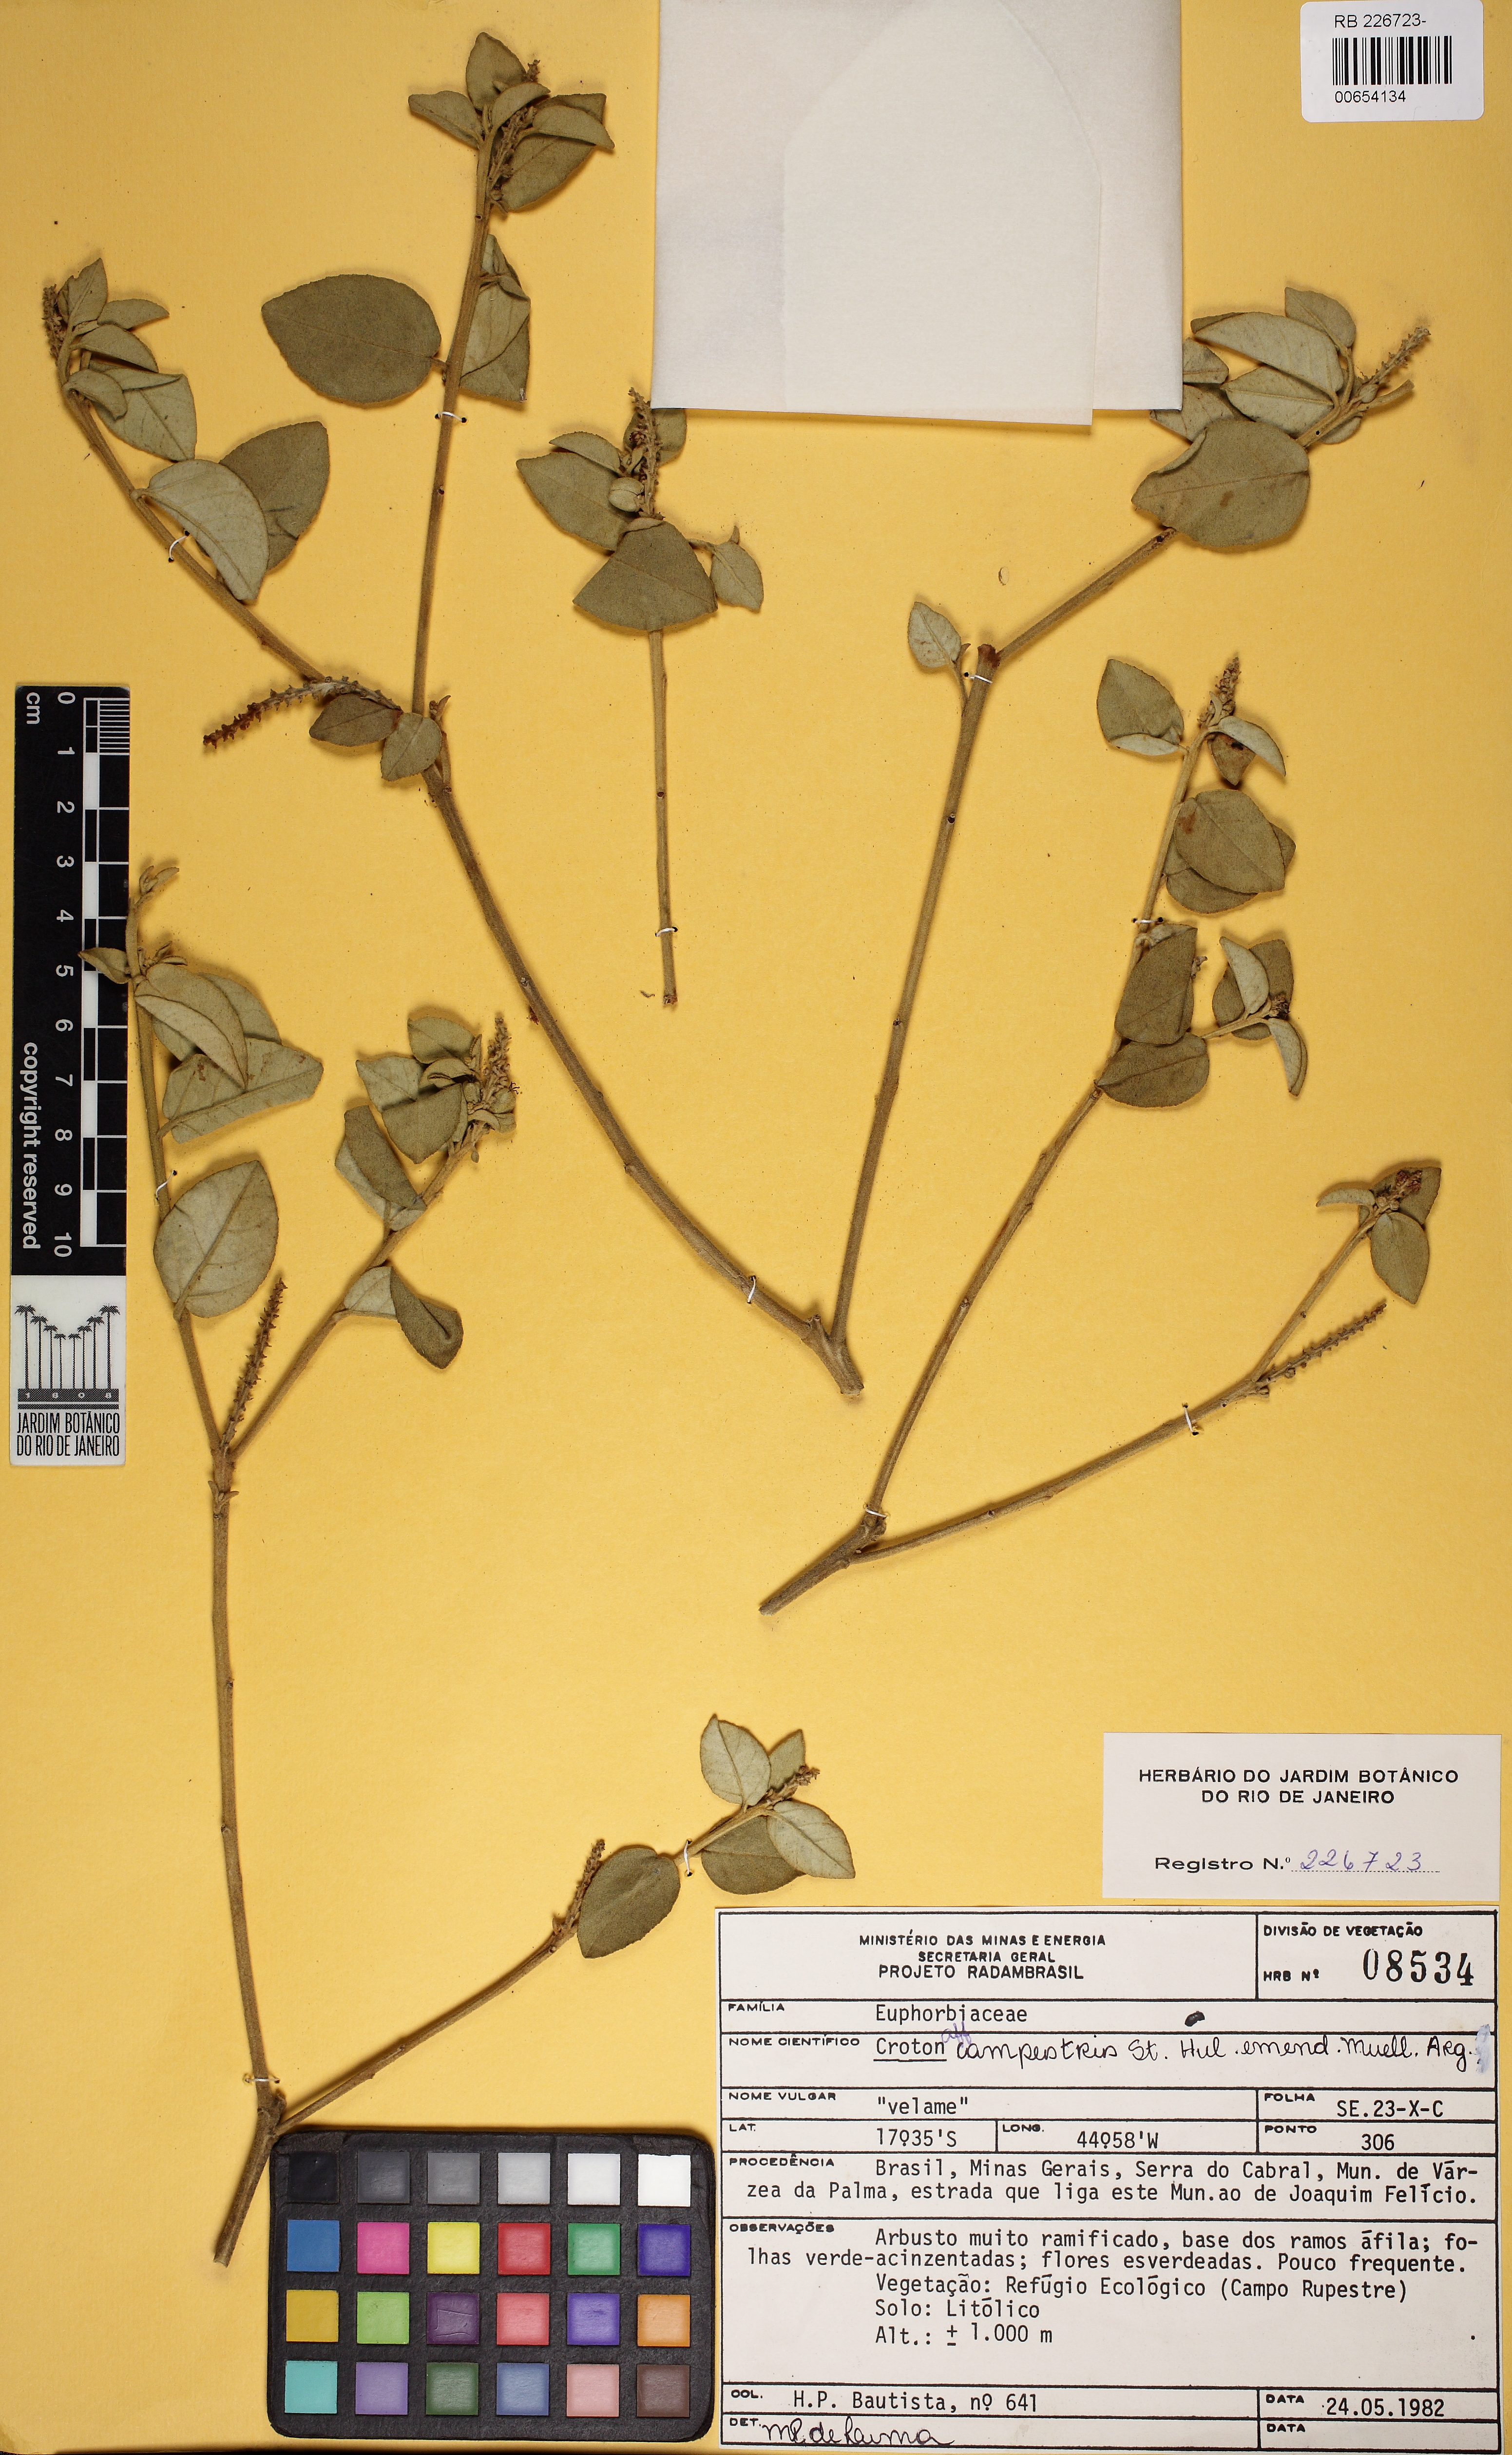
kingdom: Plantae
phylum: Tracheophyta
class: Magnoliopsida
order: Malpighiales
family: Euphorbiaceae
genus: Croton
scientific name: Croton campestris
